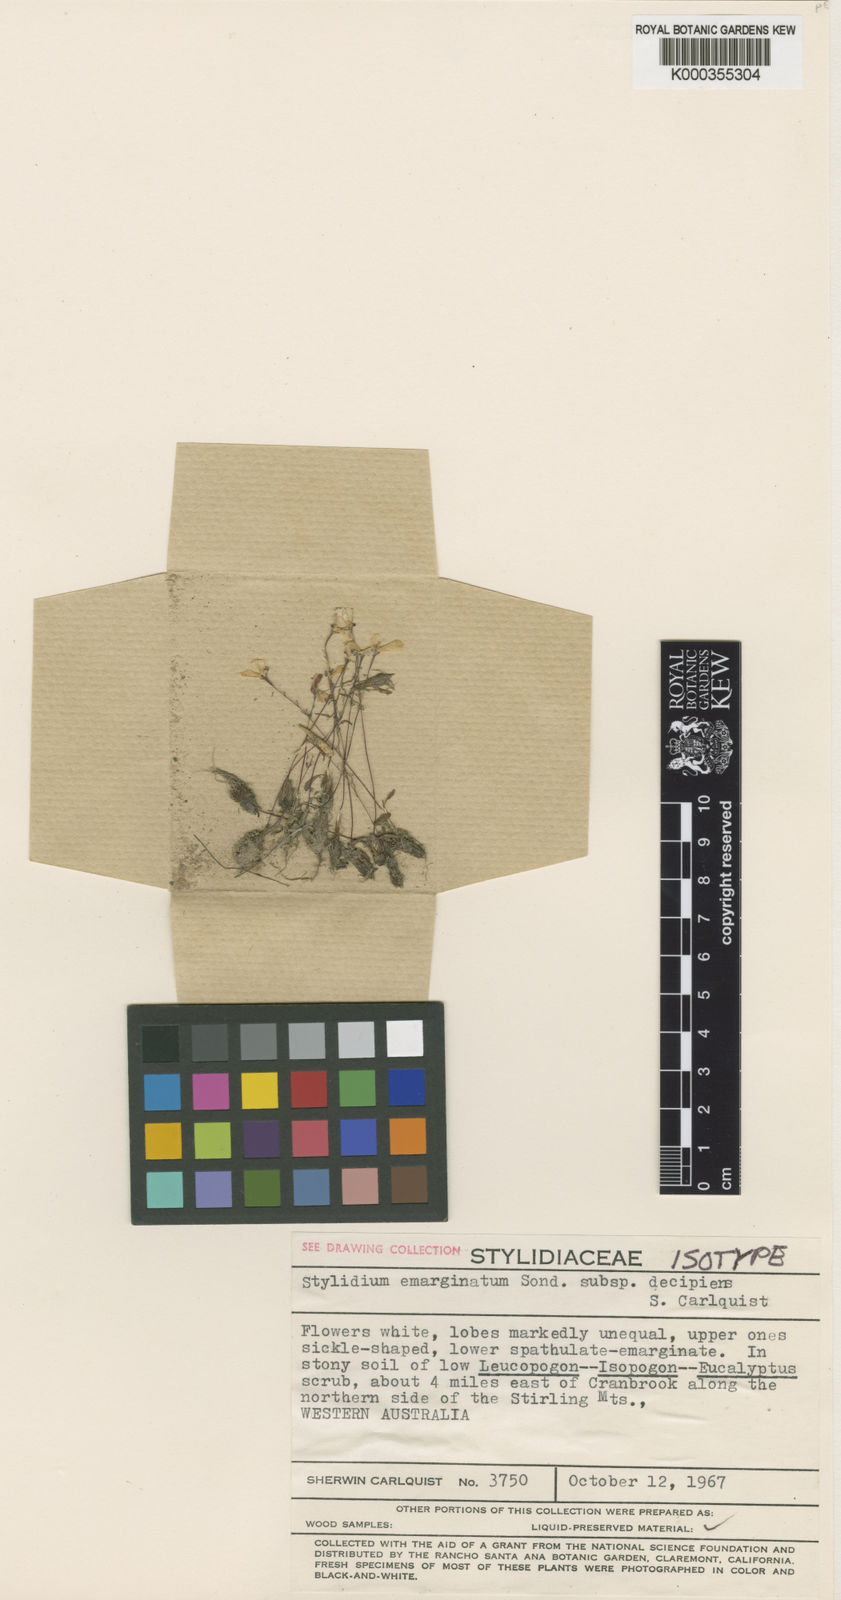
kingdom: Plantae
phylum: Tracheophyta
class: Magnoliopsida
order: Asterales
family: Stylidiaceae
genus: Stylidium
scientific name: Stylidium decipiens
